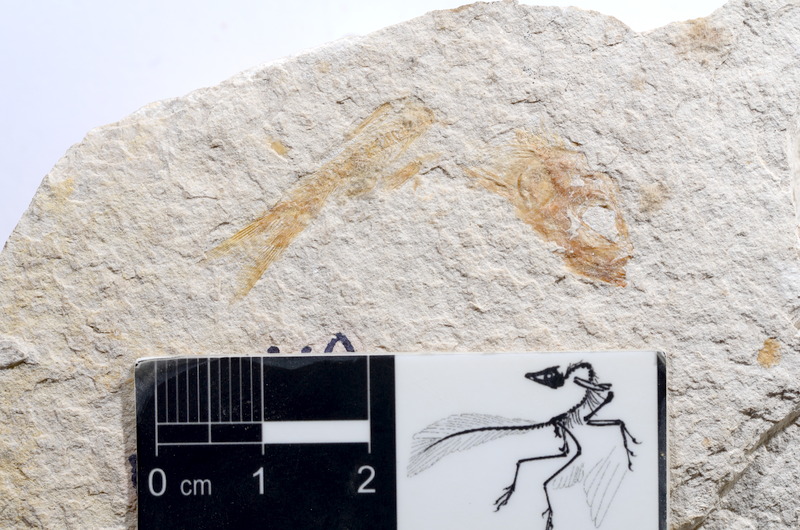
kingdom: Animalia
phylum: Chordata
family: Ascalaboidae
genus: Tharsis
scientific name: Tharsis dubius
